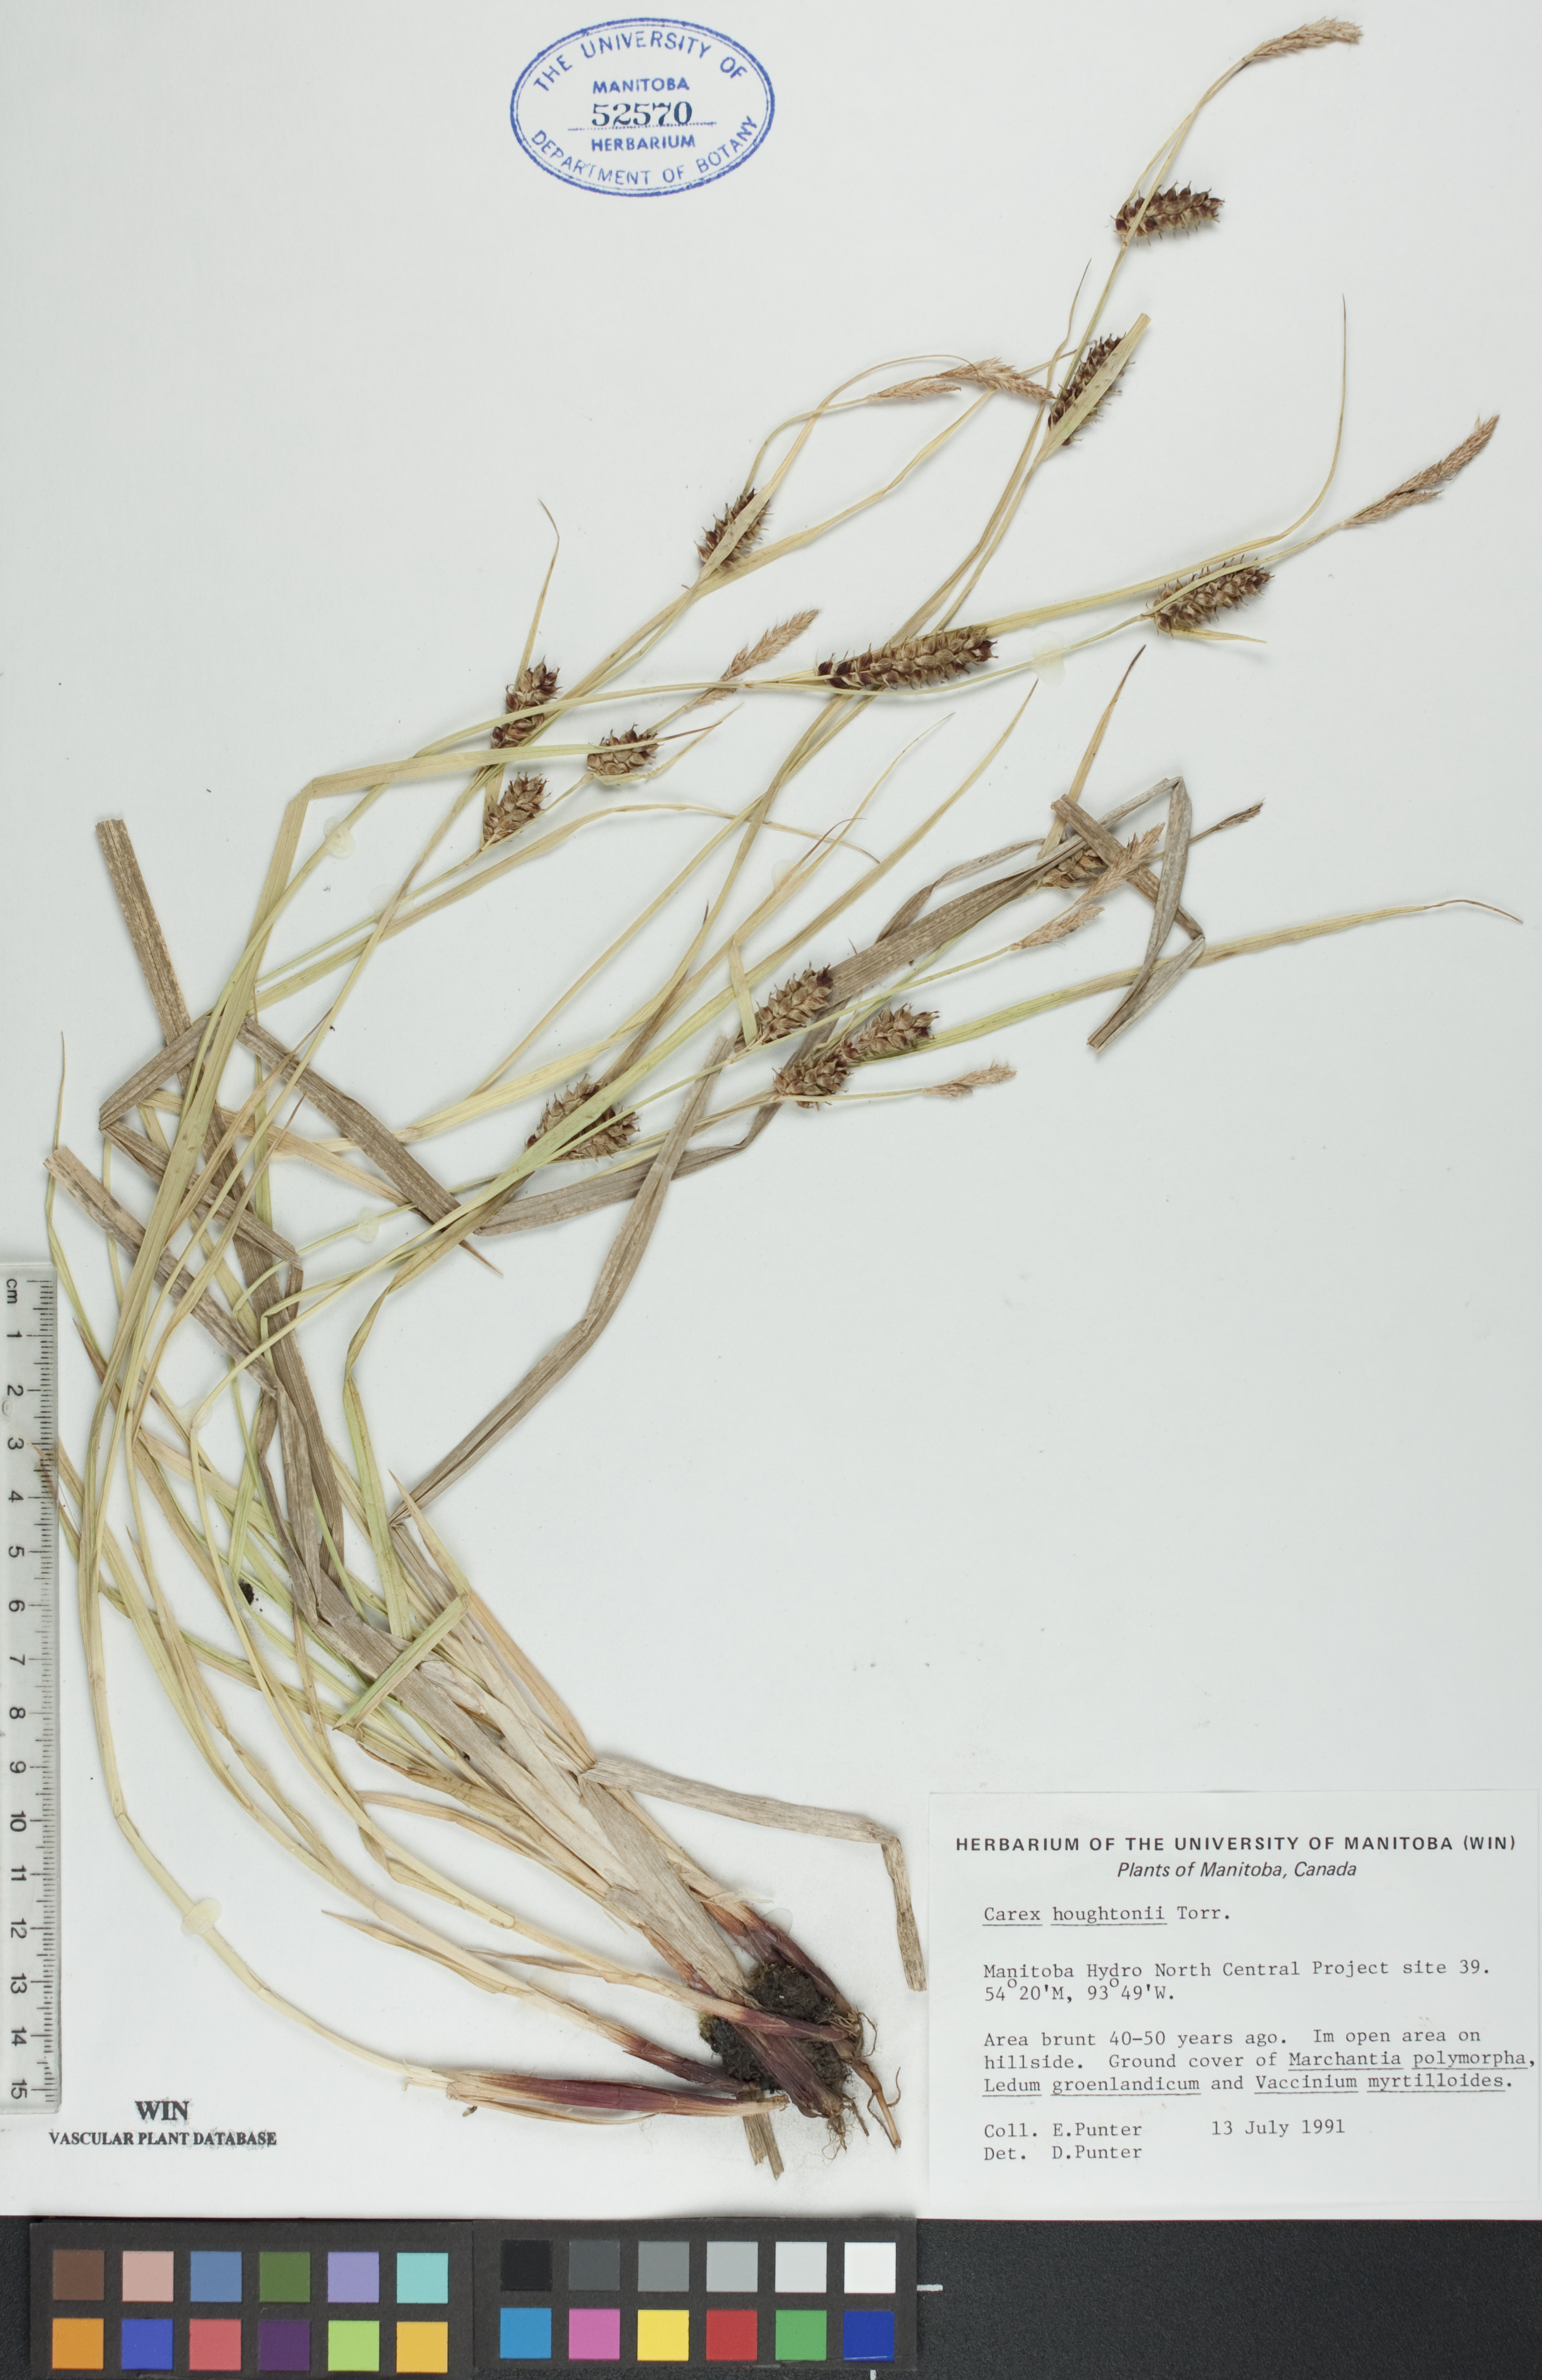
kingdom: Plantae
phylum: Tracheophyta
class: Liliopsida
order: Poales
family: Cyperaceae
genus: Carex
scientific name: Carex houghtoniana
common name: Houghton's sedge
